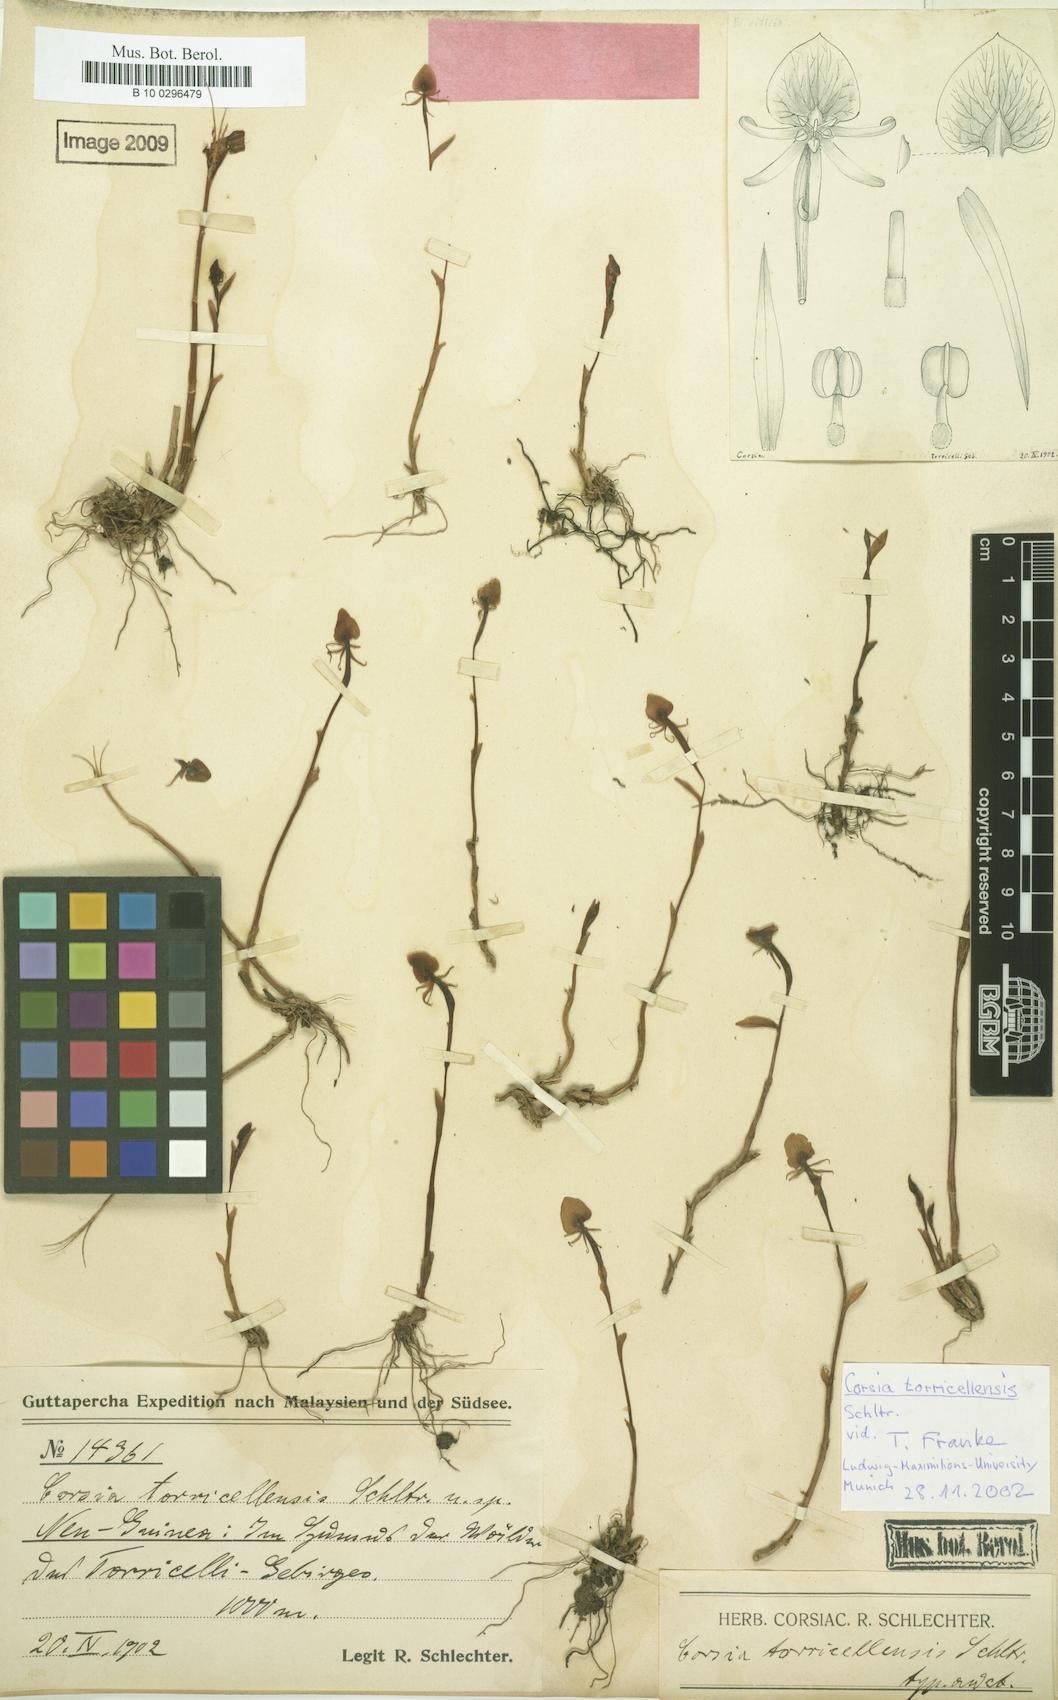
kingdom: Plantae
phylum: Tracheophyta
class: Liliopsida
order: Liliales
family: Corsiaceae
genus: Corsia
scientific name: Corsia torricellensis
